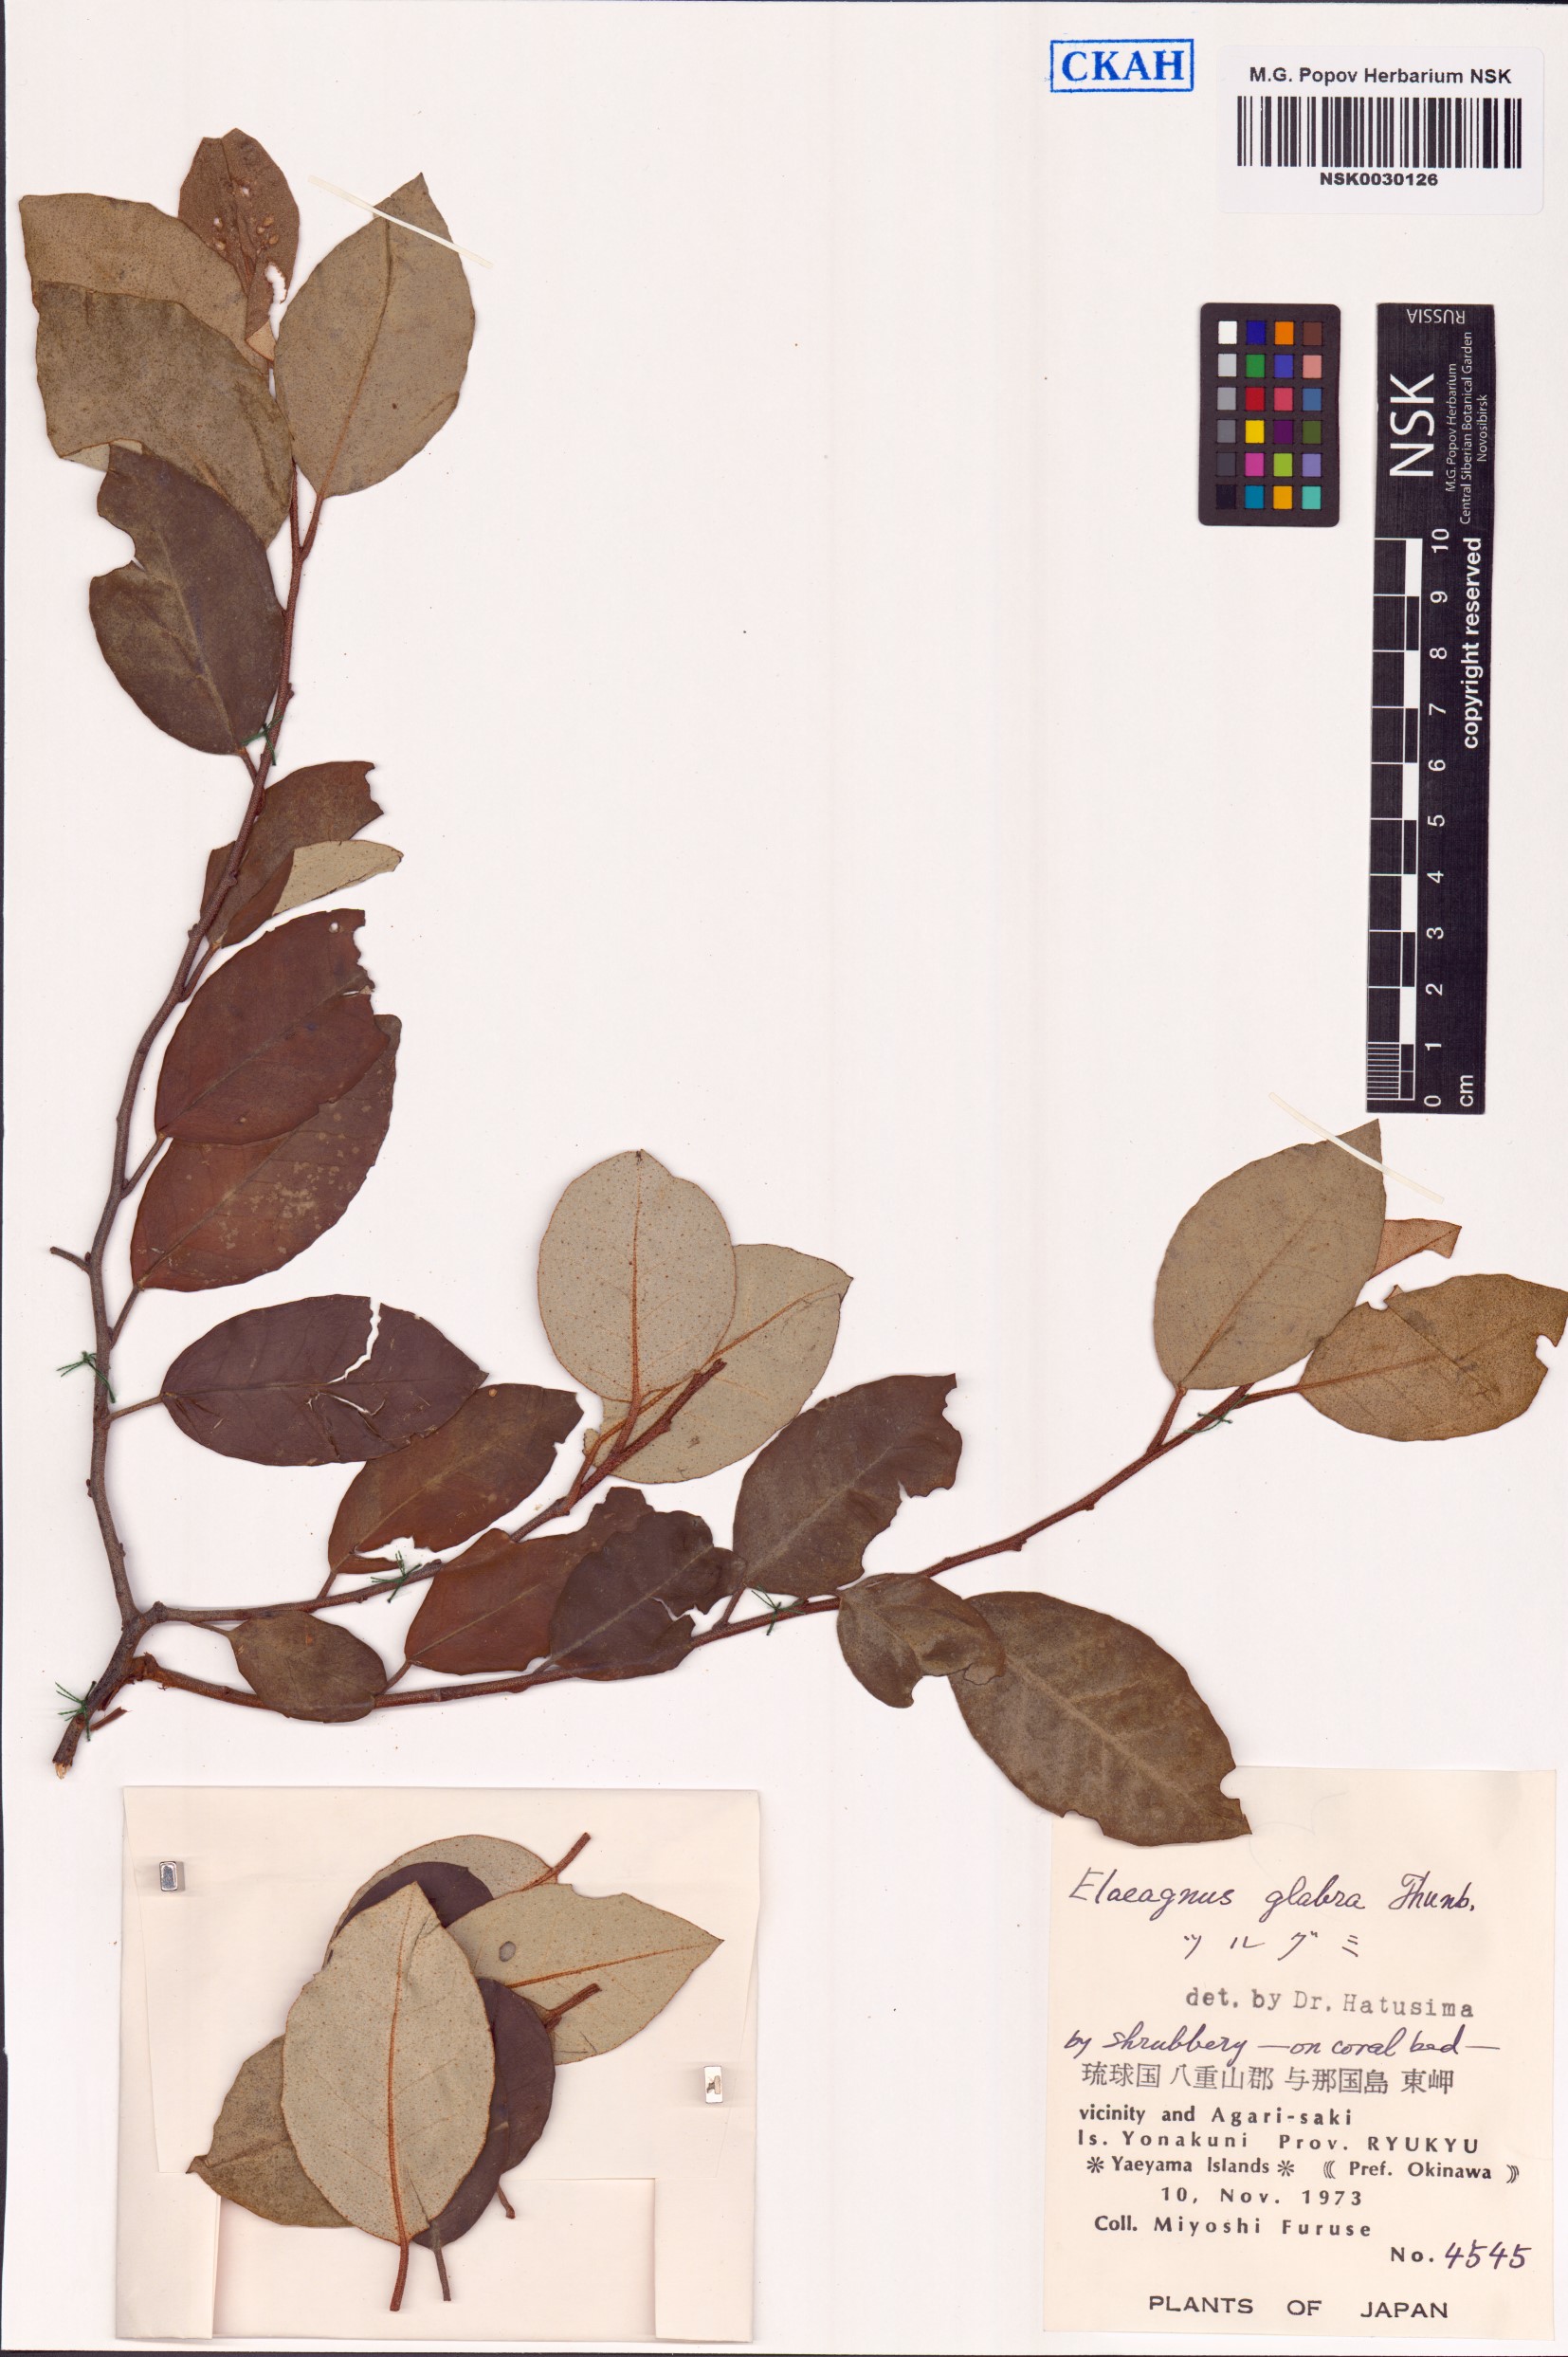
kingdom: Plantae
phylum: Tracheophyta
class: Magnoliopsida
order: Rosales
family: Elaeagnaceae
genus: Elaeagnus
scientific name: Elaeagnus glabra
